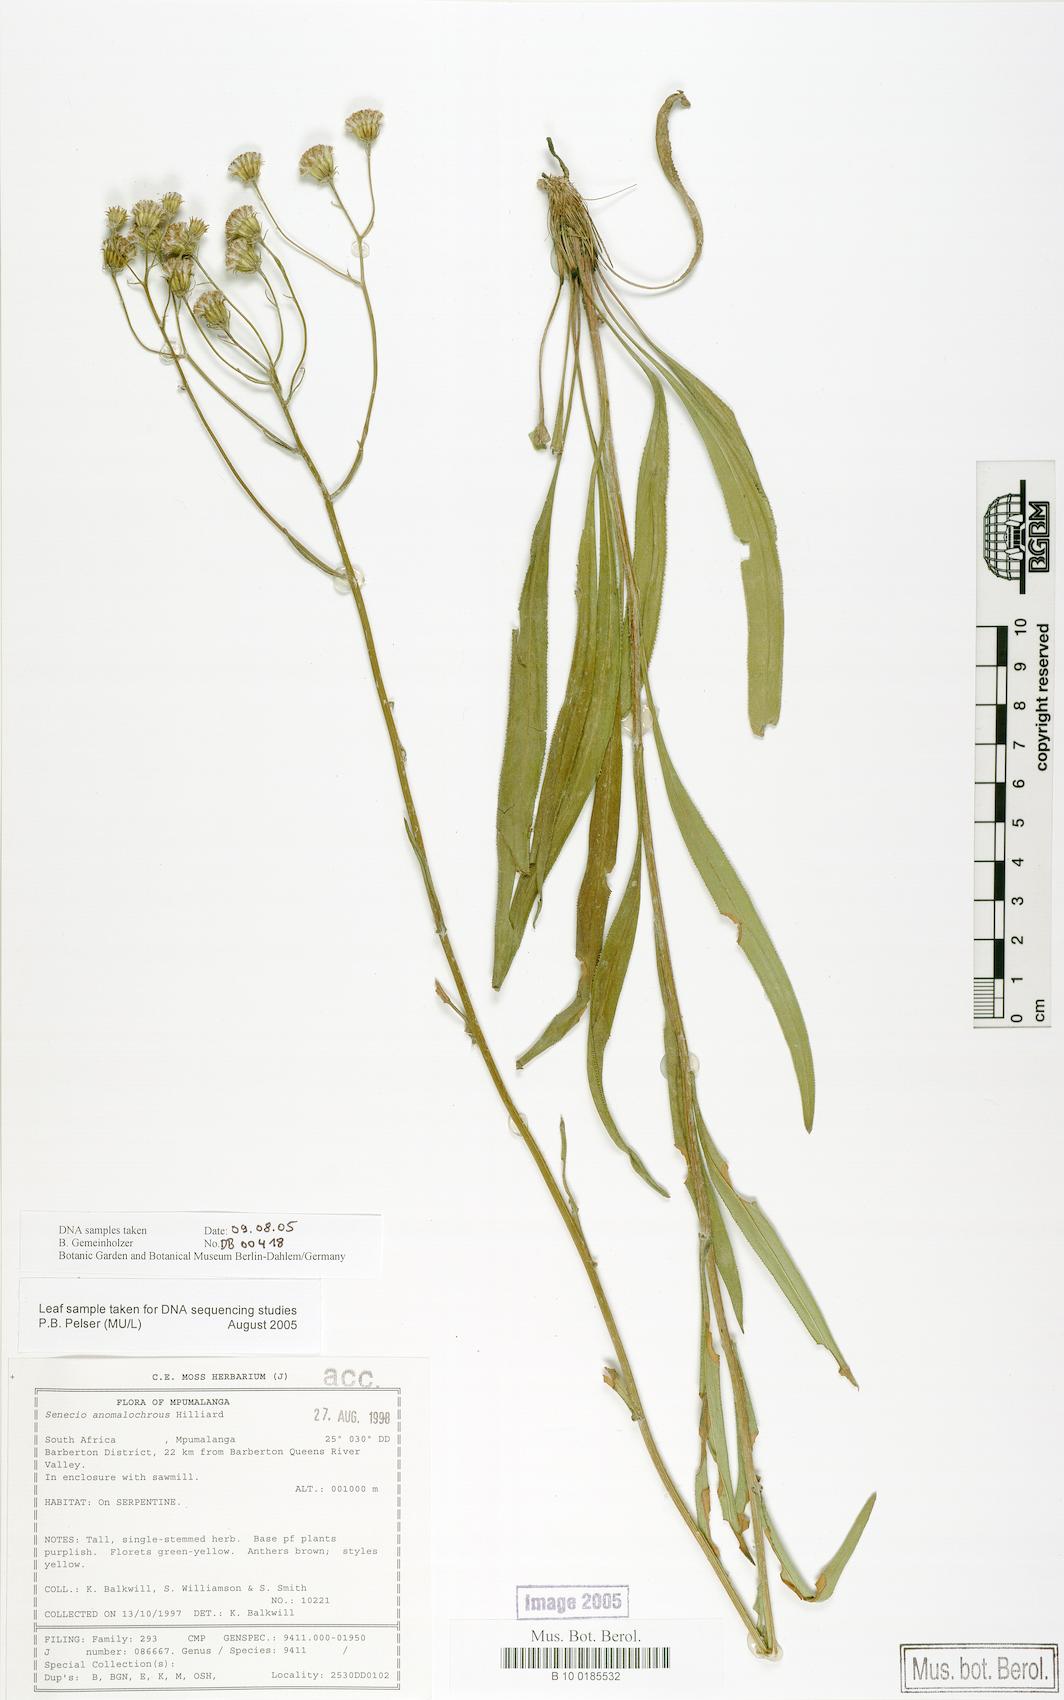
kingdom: Plantae
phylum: Tracheophyta
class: Magnoliopsida
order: Asterales
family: Asteraceae
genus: Senecio
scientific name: Senecio anomalochrous
